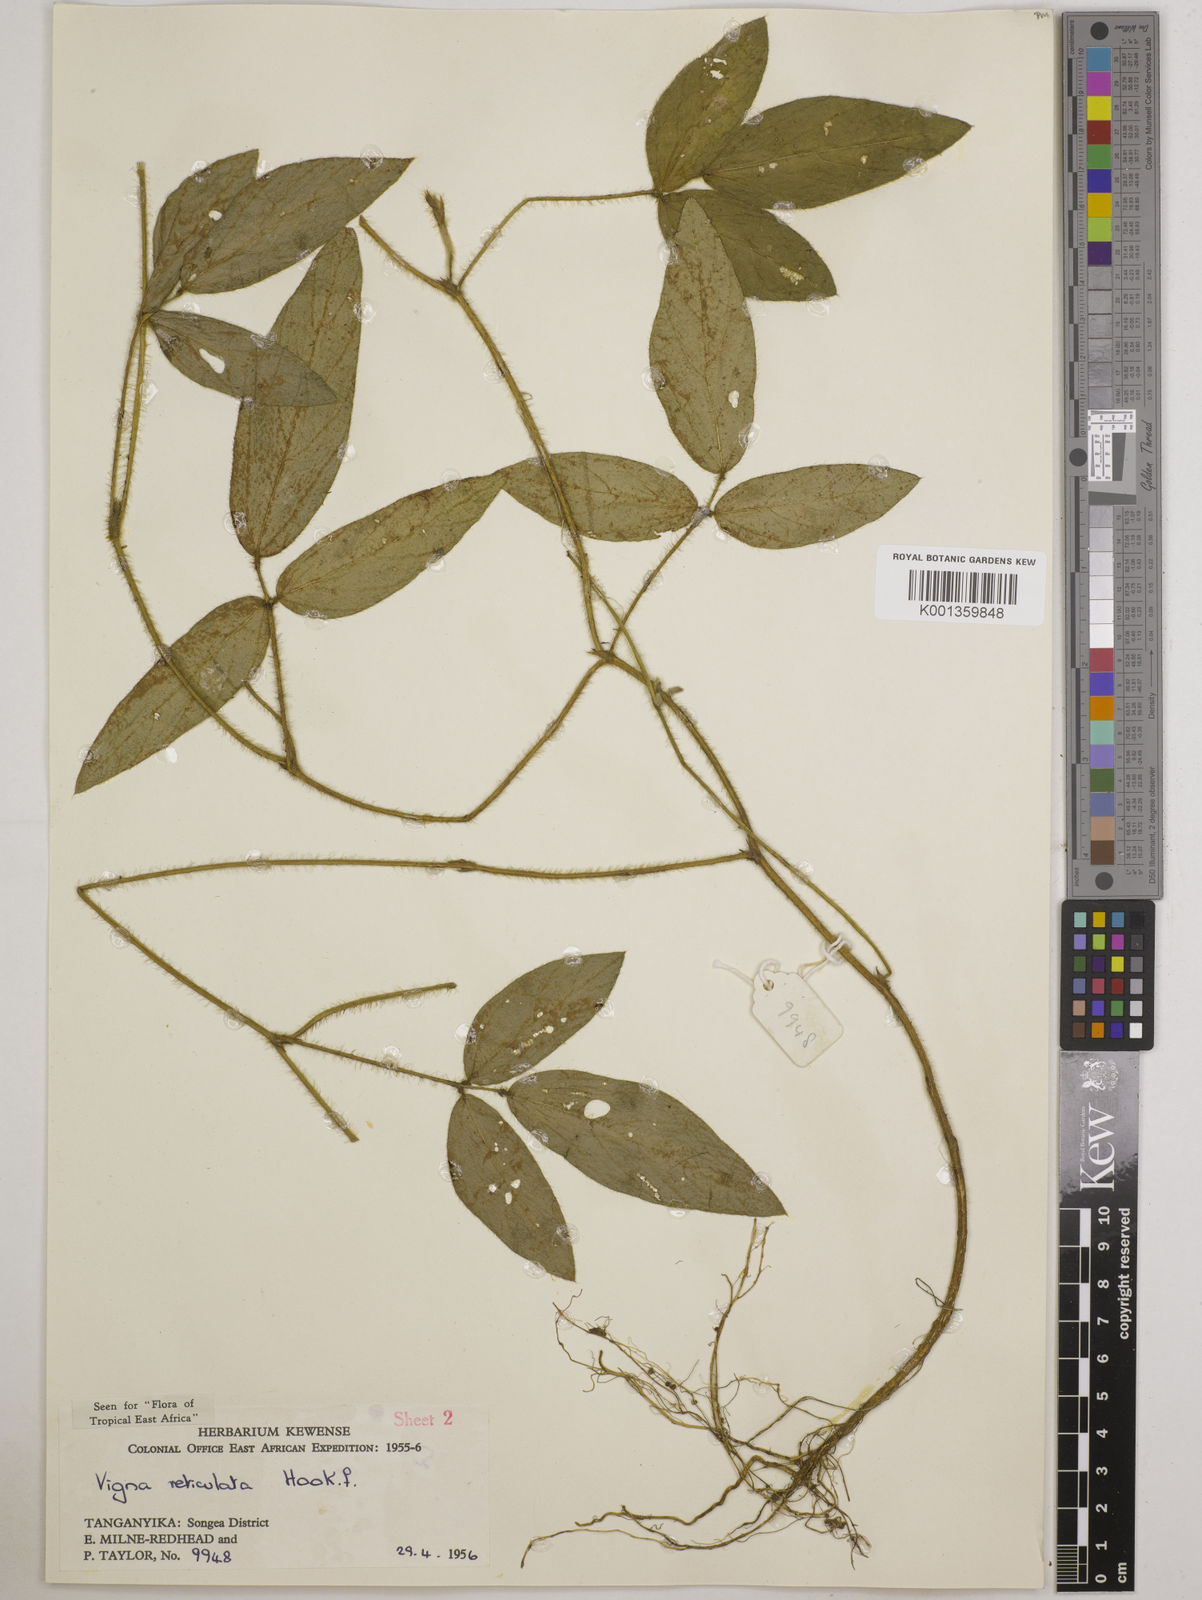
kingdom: Plantae
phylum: Tracheophyta
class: Magnoliopsida
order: Fabales
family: Fabaceae
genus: Vigna
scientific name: Vigna reticulata
